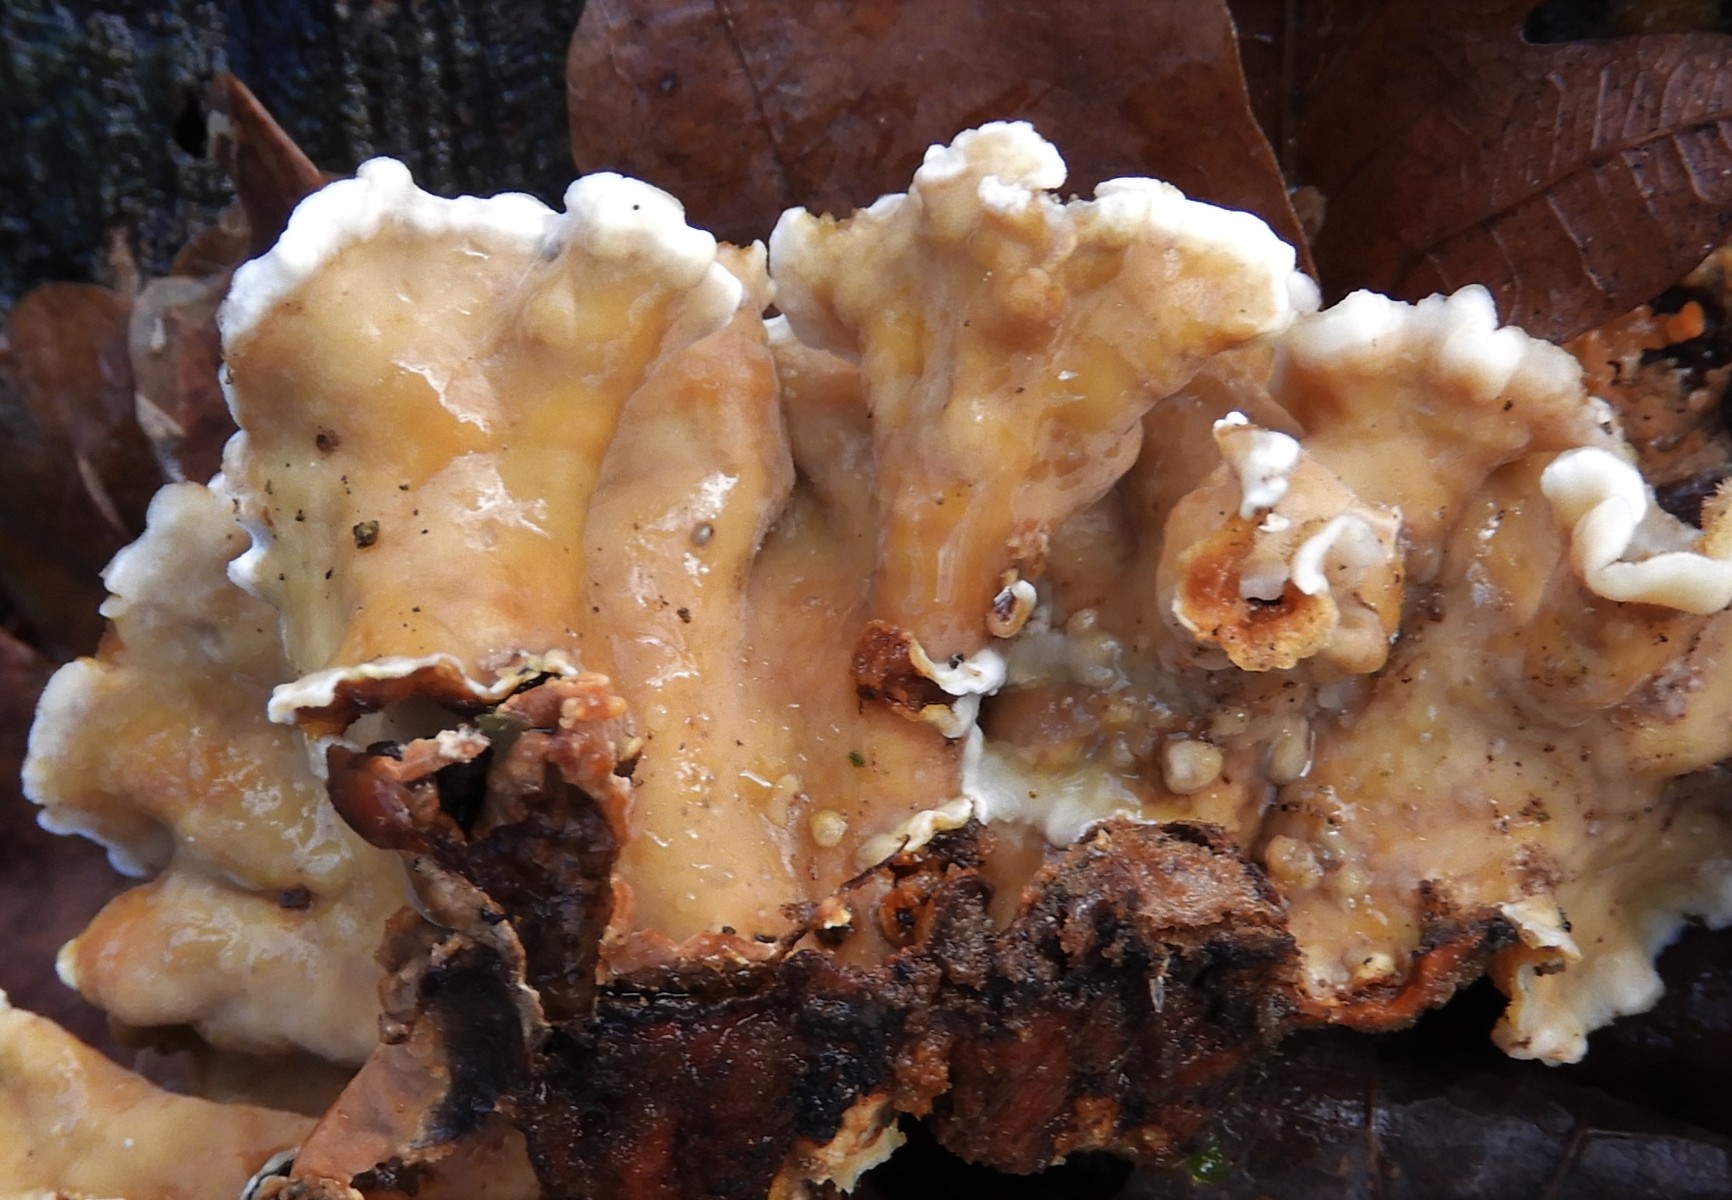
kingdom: Fungi
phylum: Basidiomycota
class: Agaricomycetes
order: Russulales
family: Stereaceae
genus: Stereum
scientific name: Stereum hirsutum
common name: håret lædersvamp
